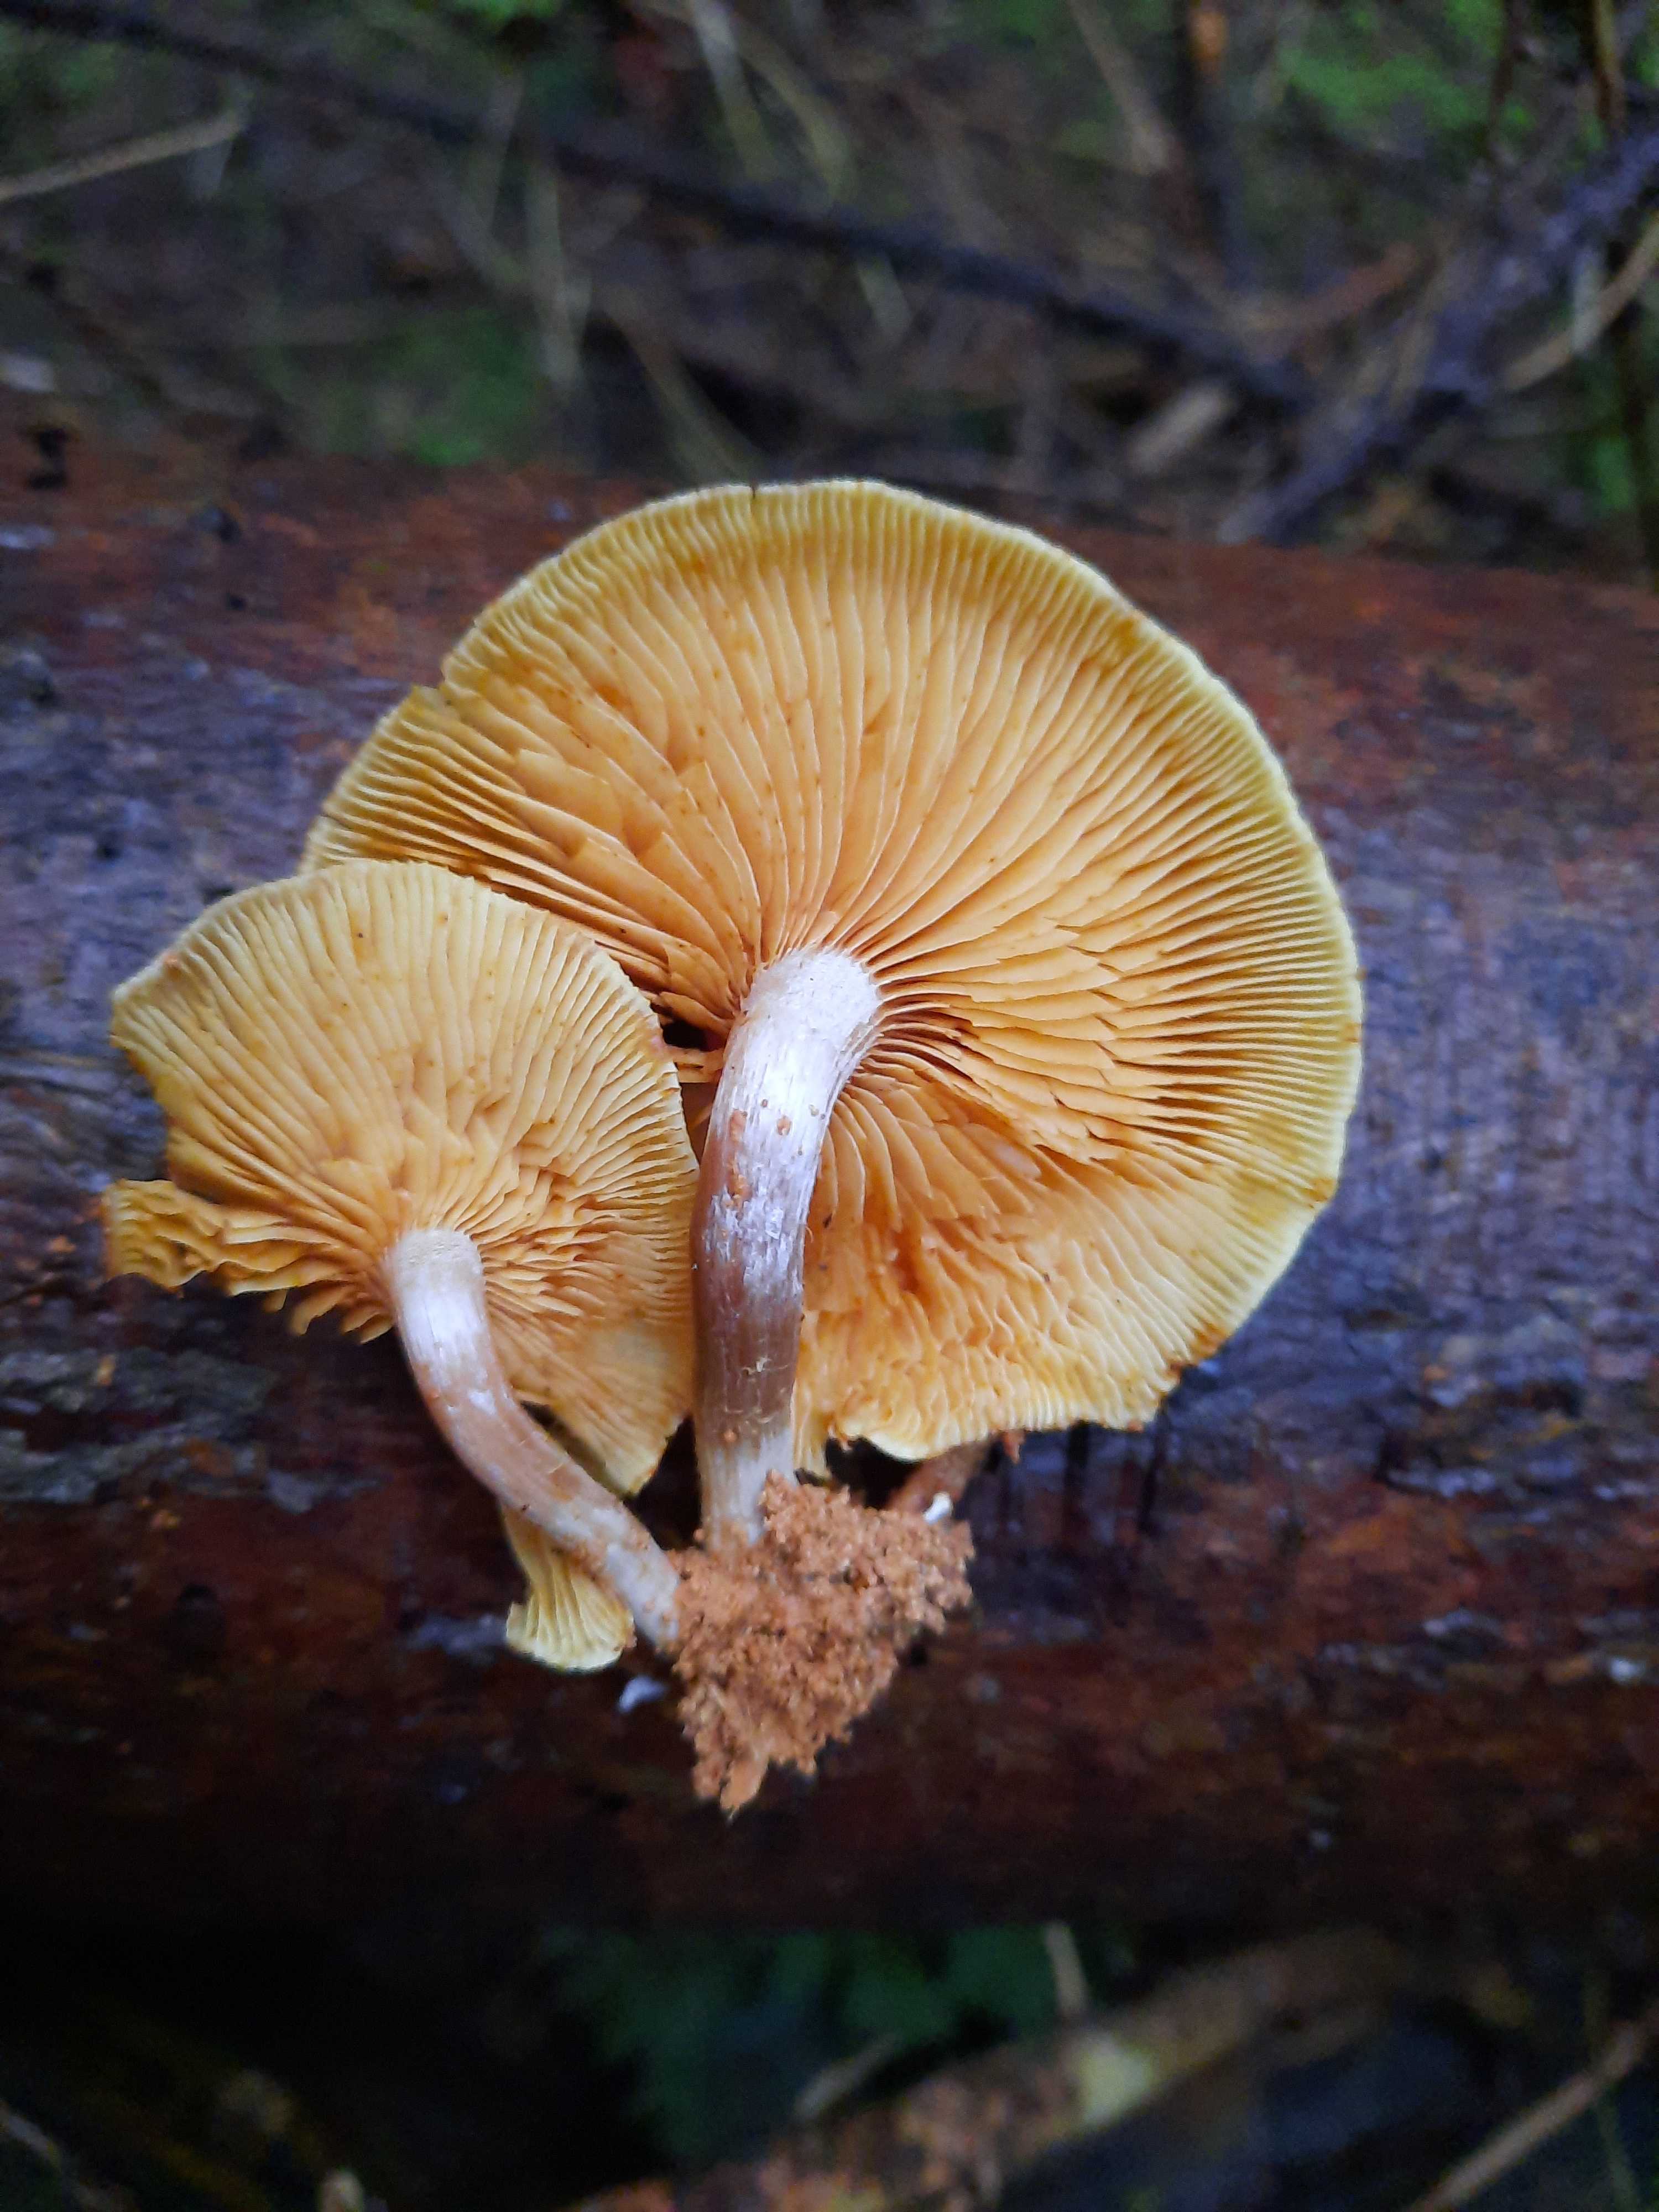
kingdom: Fungi
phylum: Basidiomycota
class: Agaricomycetes
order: Agaricales
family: Hymenogastraceae
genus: Gymnopilus
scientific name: Gymnopilus penetrans
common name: plettet flammehat
